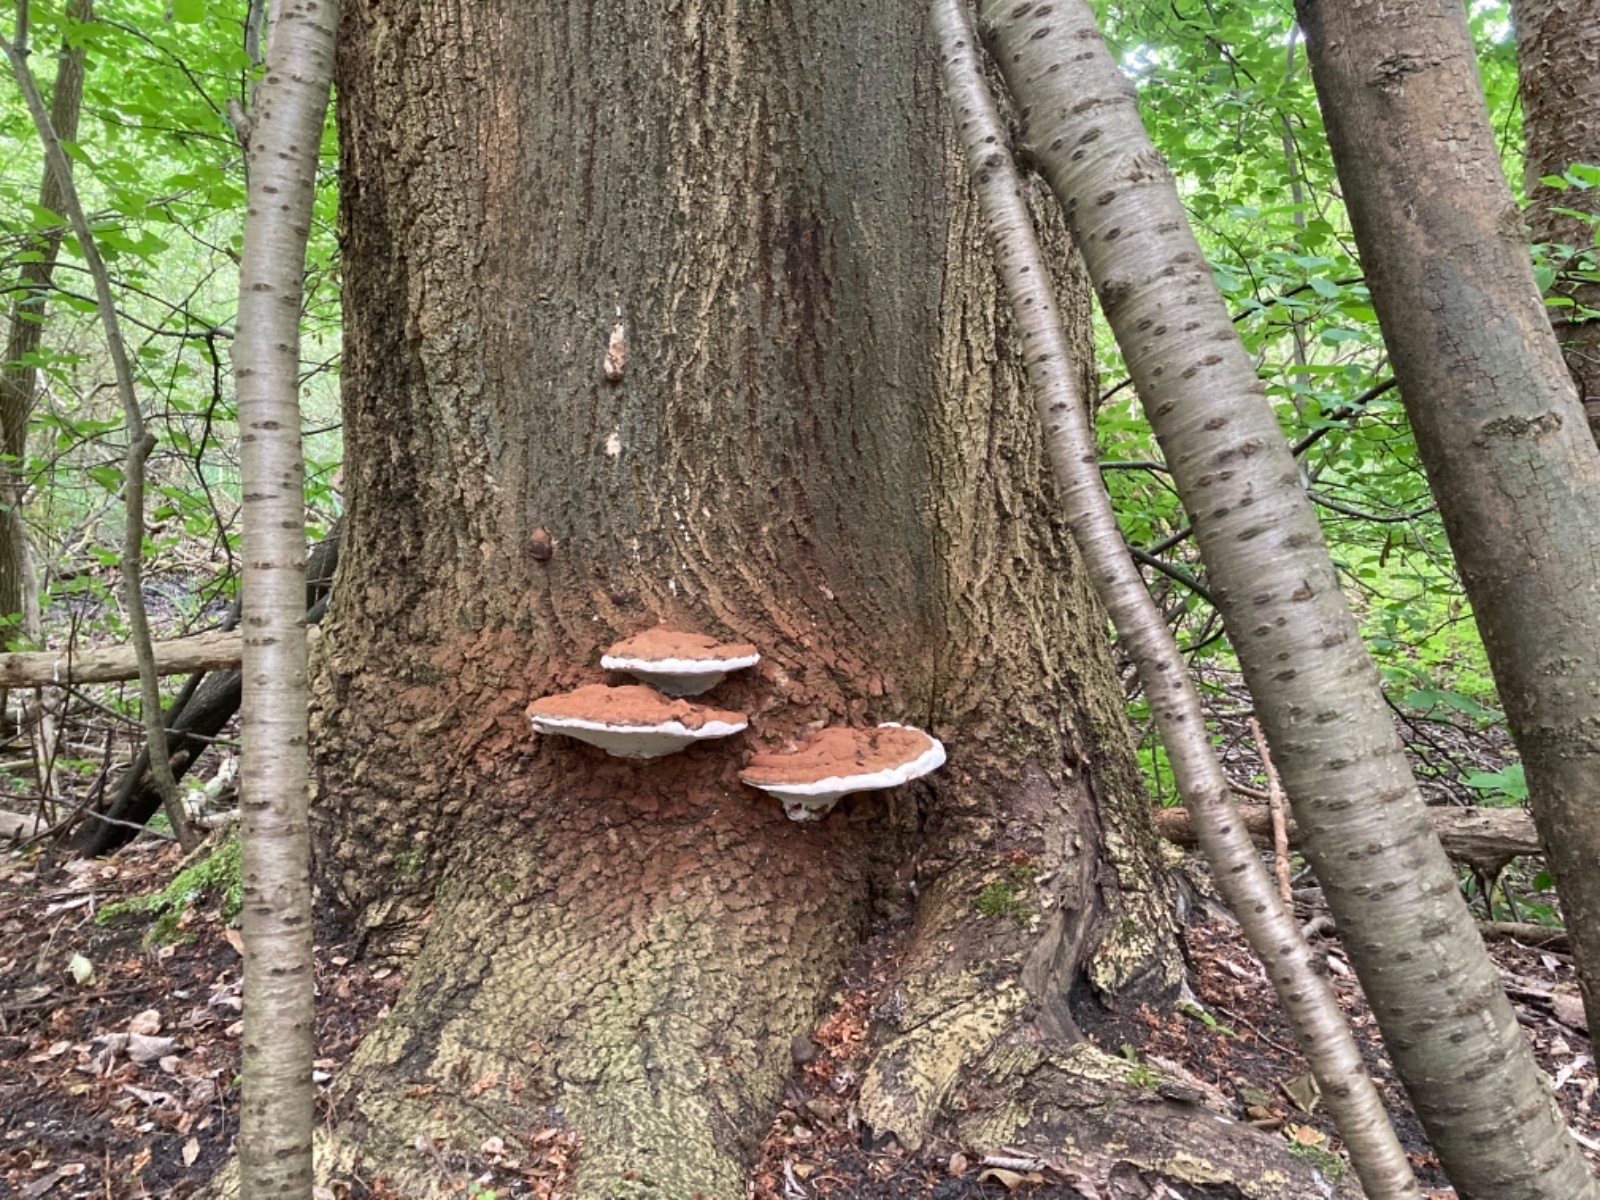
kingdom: Fungi
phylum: Basidiomycota
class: Agaricomycetes
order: Polyporales
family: Polyporaceae
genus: Ganoderma
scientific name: Ganoderma applanatum
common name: flad lakporesvamp
